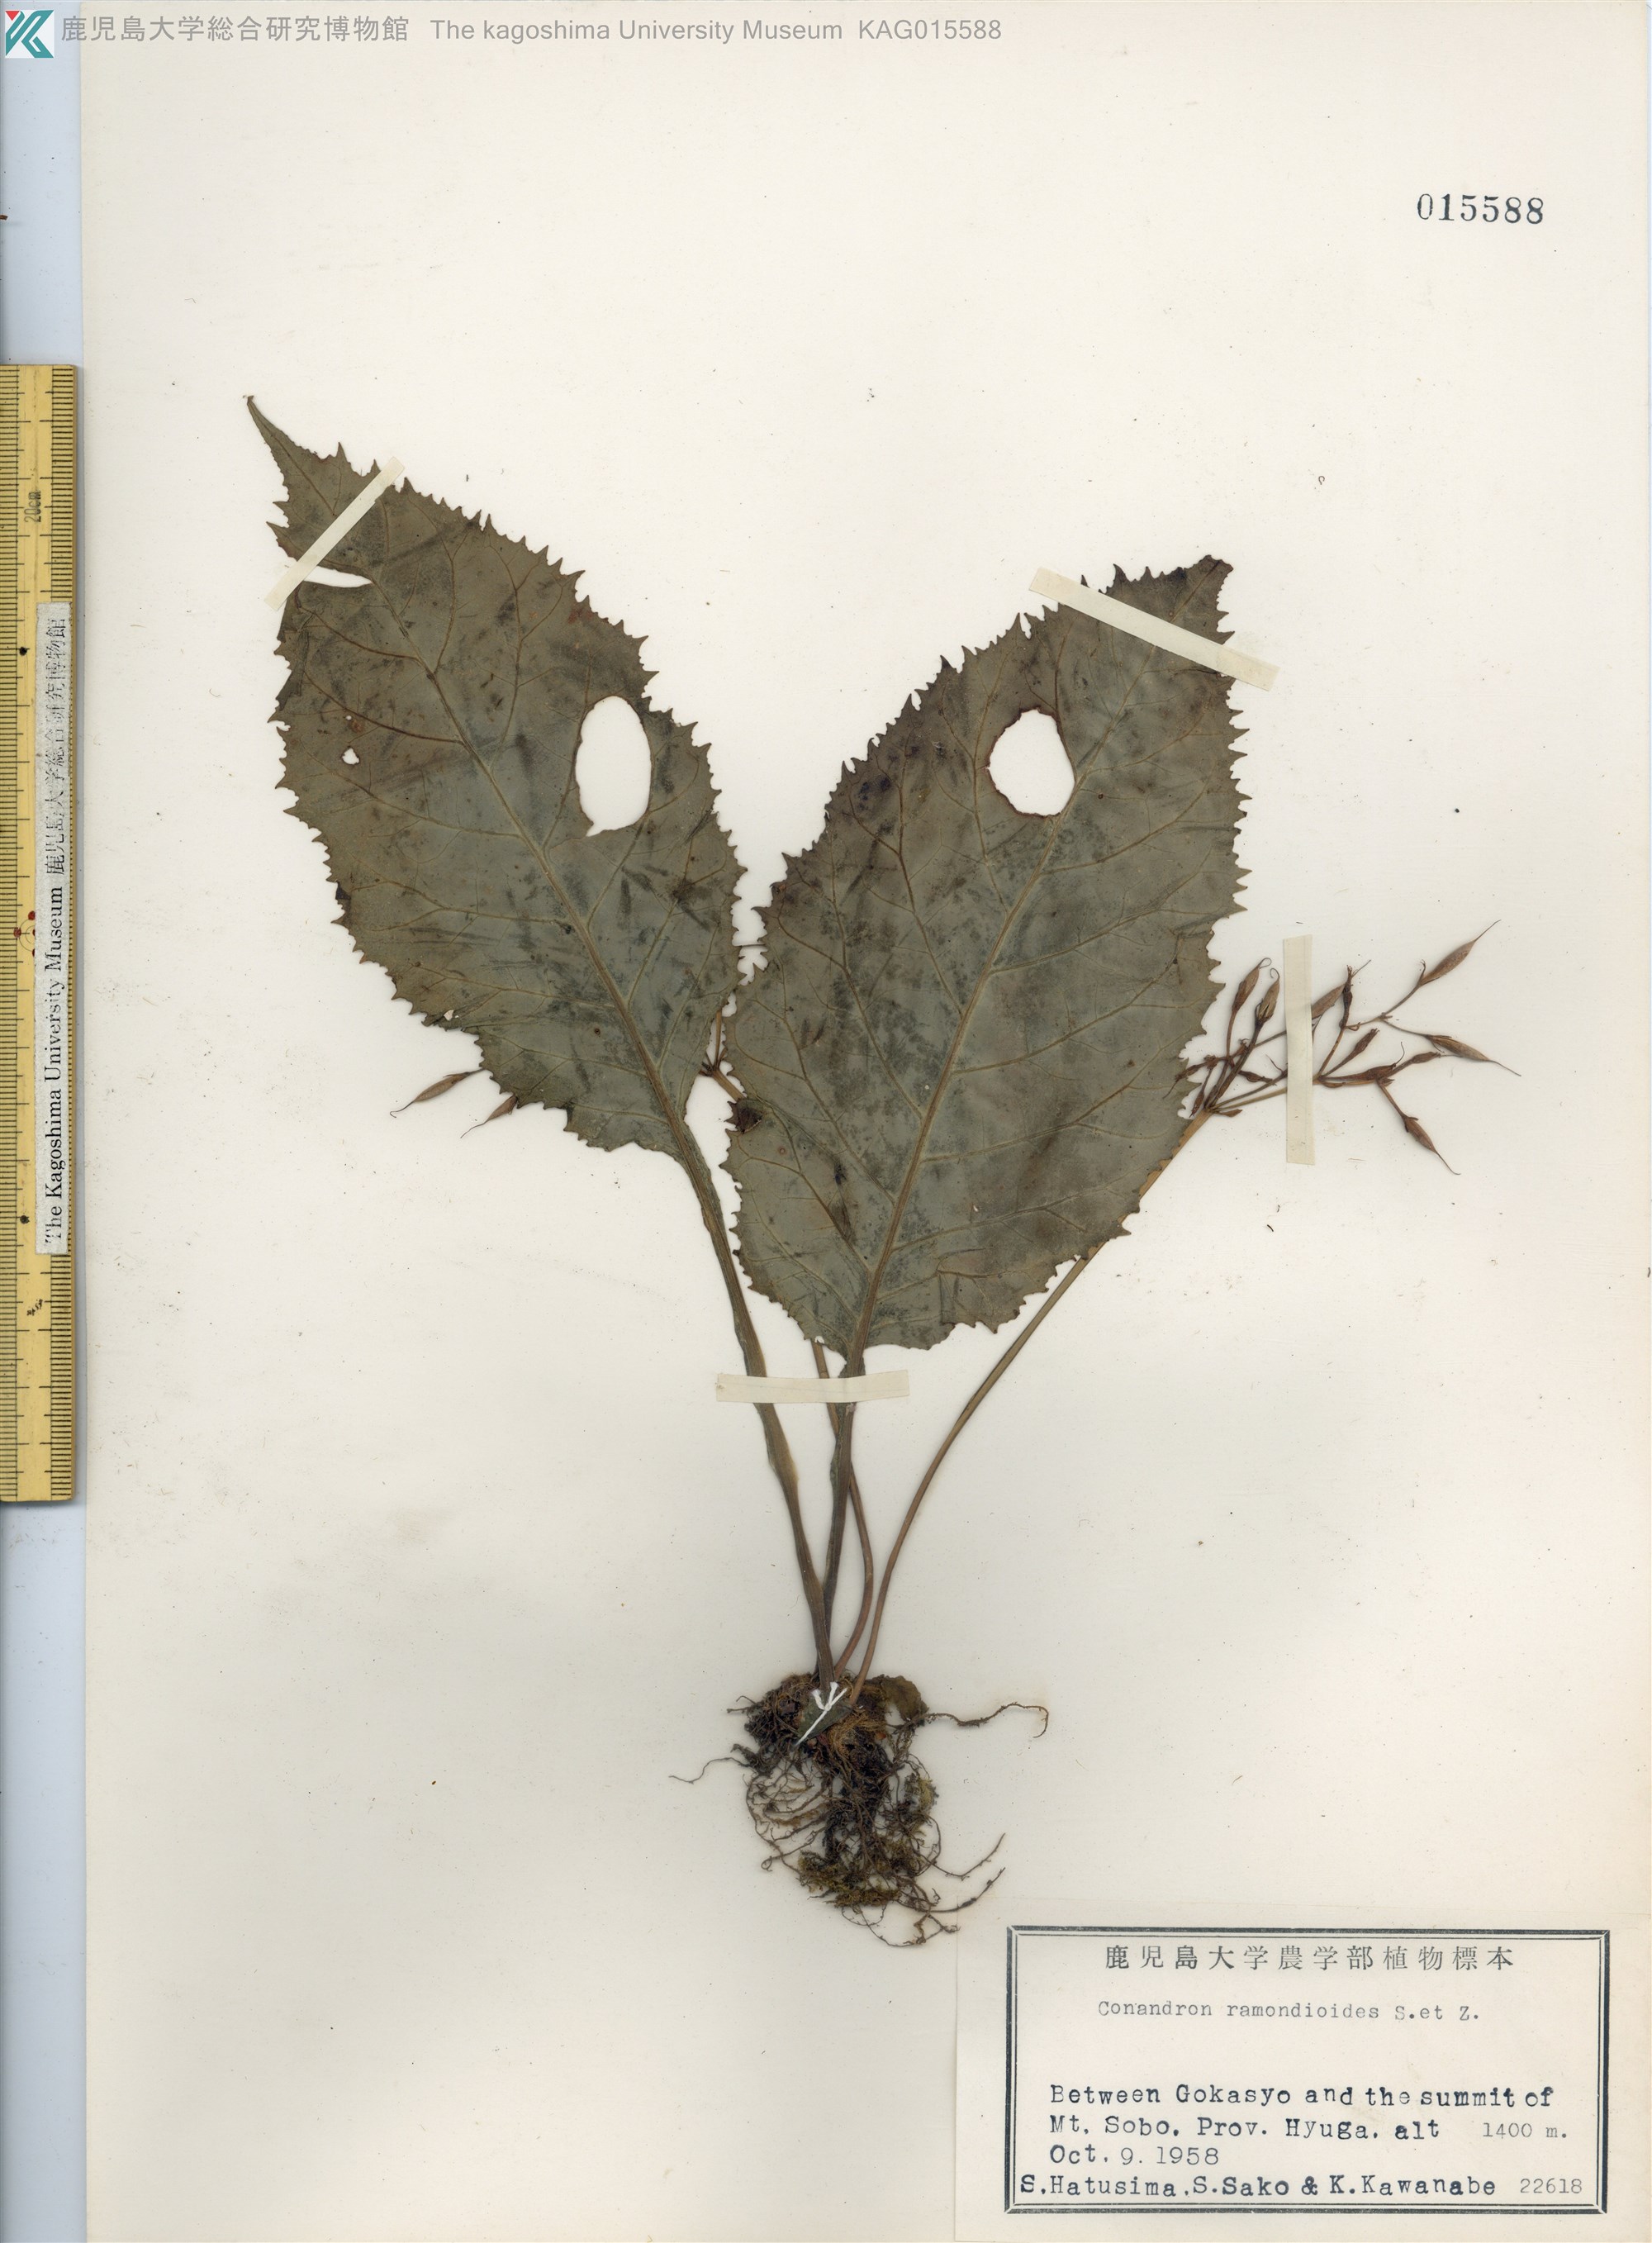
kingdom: Plantae
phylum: Tracheophyta
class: Magnoliopsida
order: Lamiales
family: Gesneriaceae
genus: Conandron
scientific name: Conandron ramondioides
